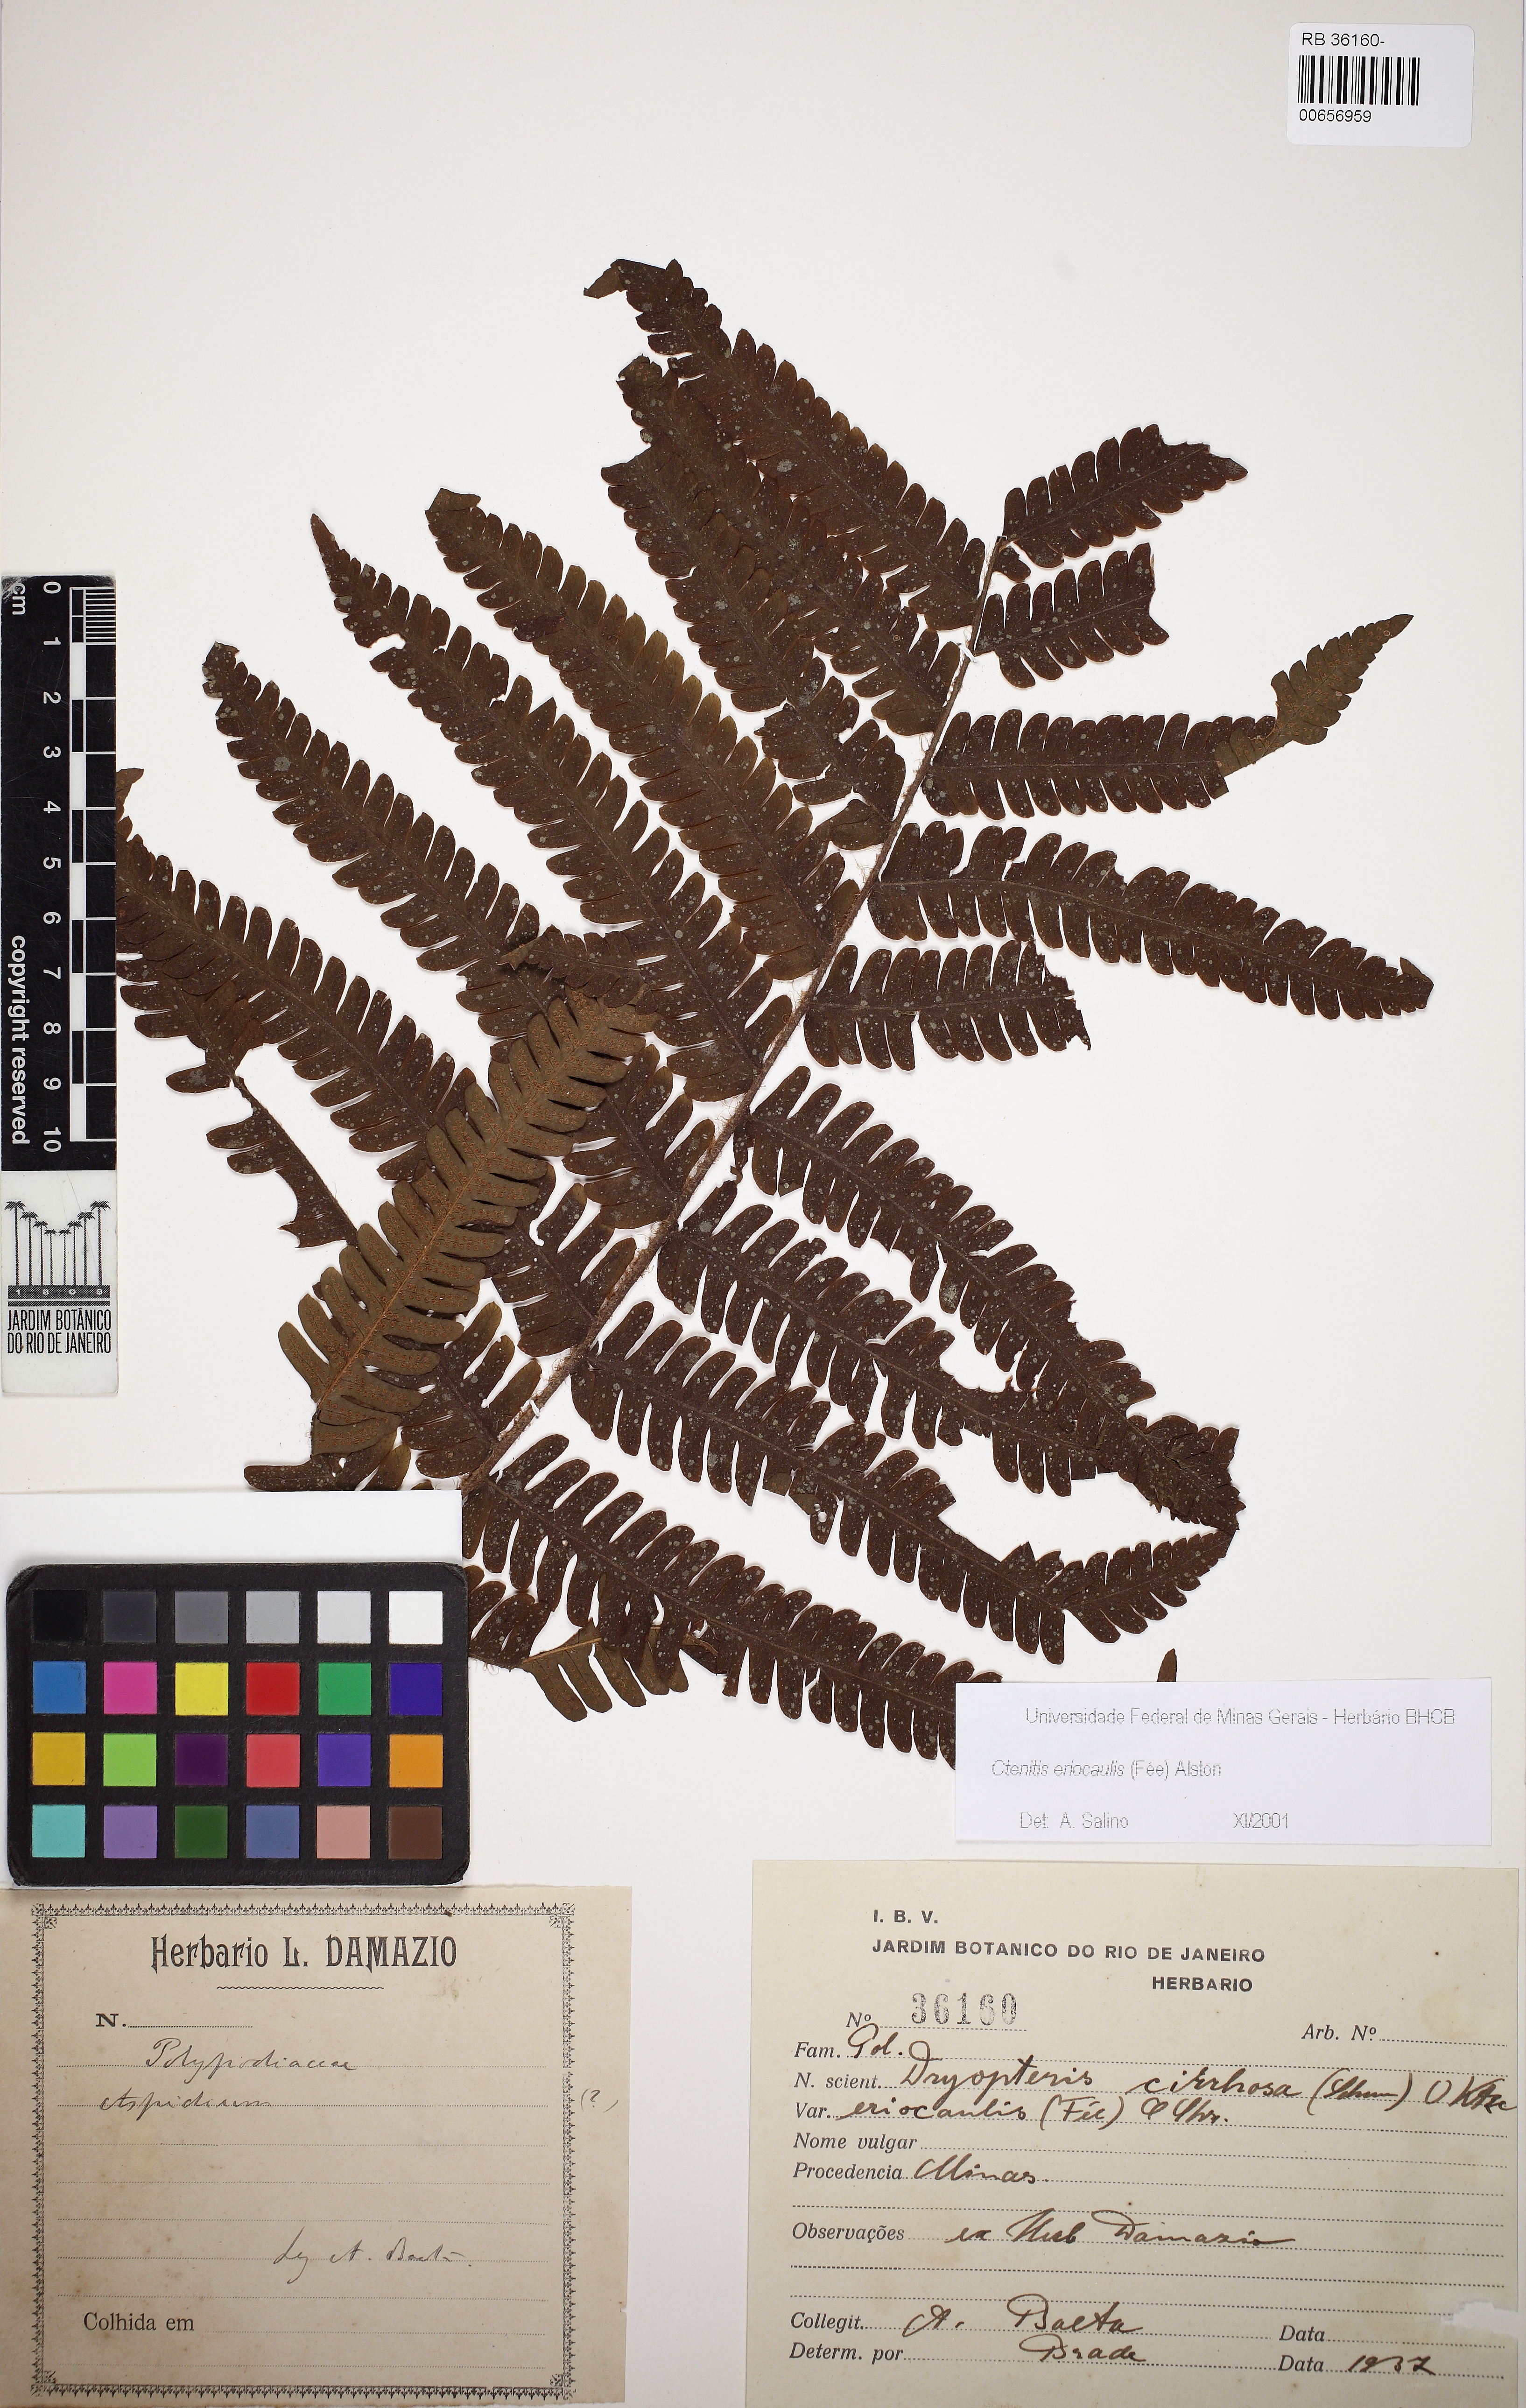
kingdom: Plantae
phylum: Tracheophyta
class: Polypodiopsida
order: Polypodiales
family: Dryopteridaceae
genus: Ctenitis
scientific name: Ctenitis eriocaulis
